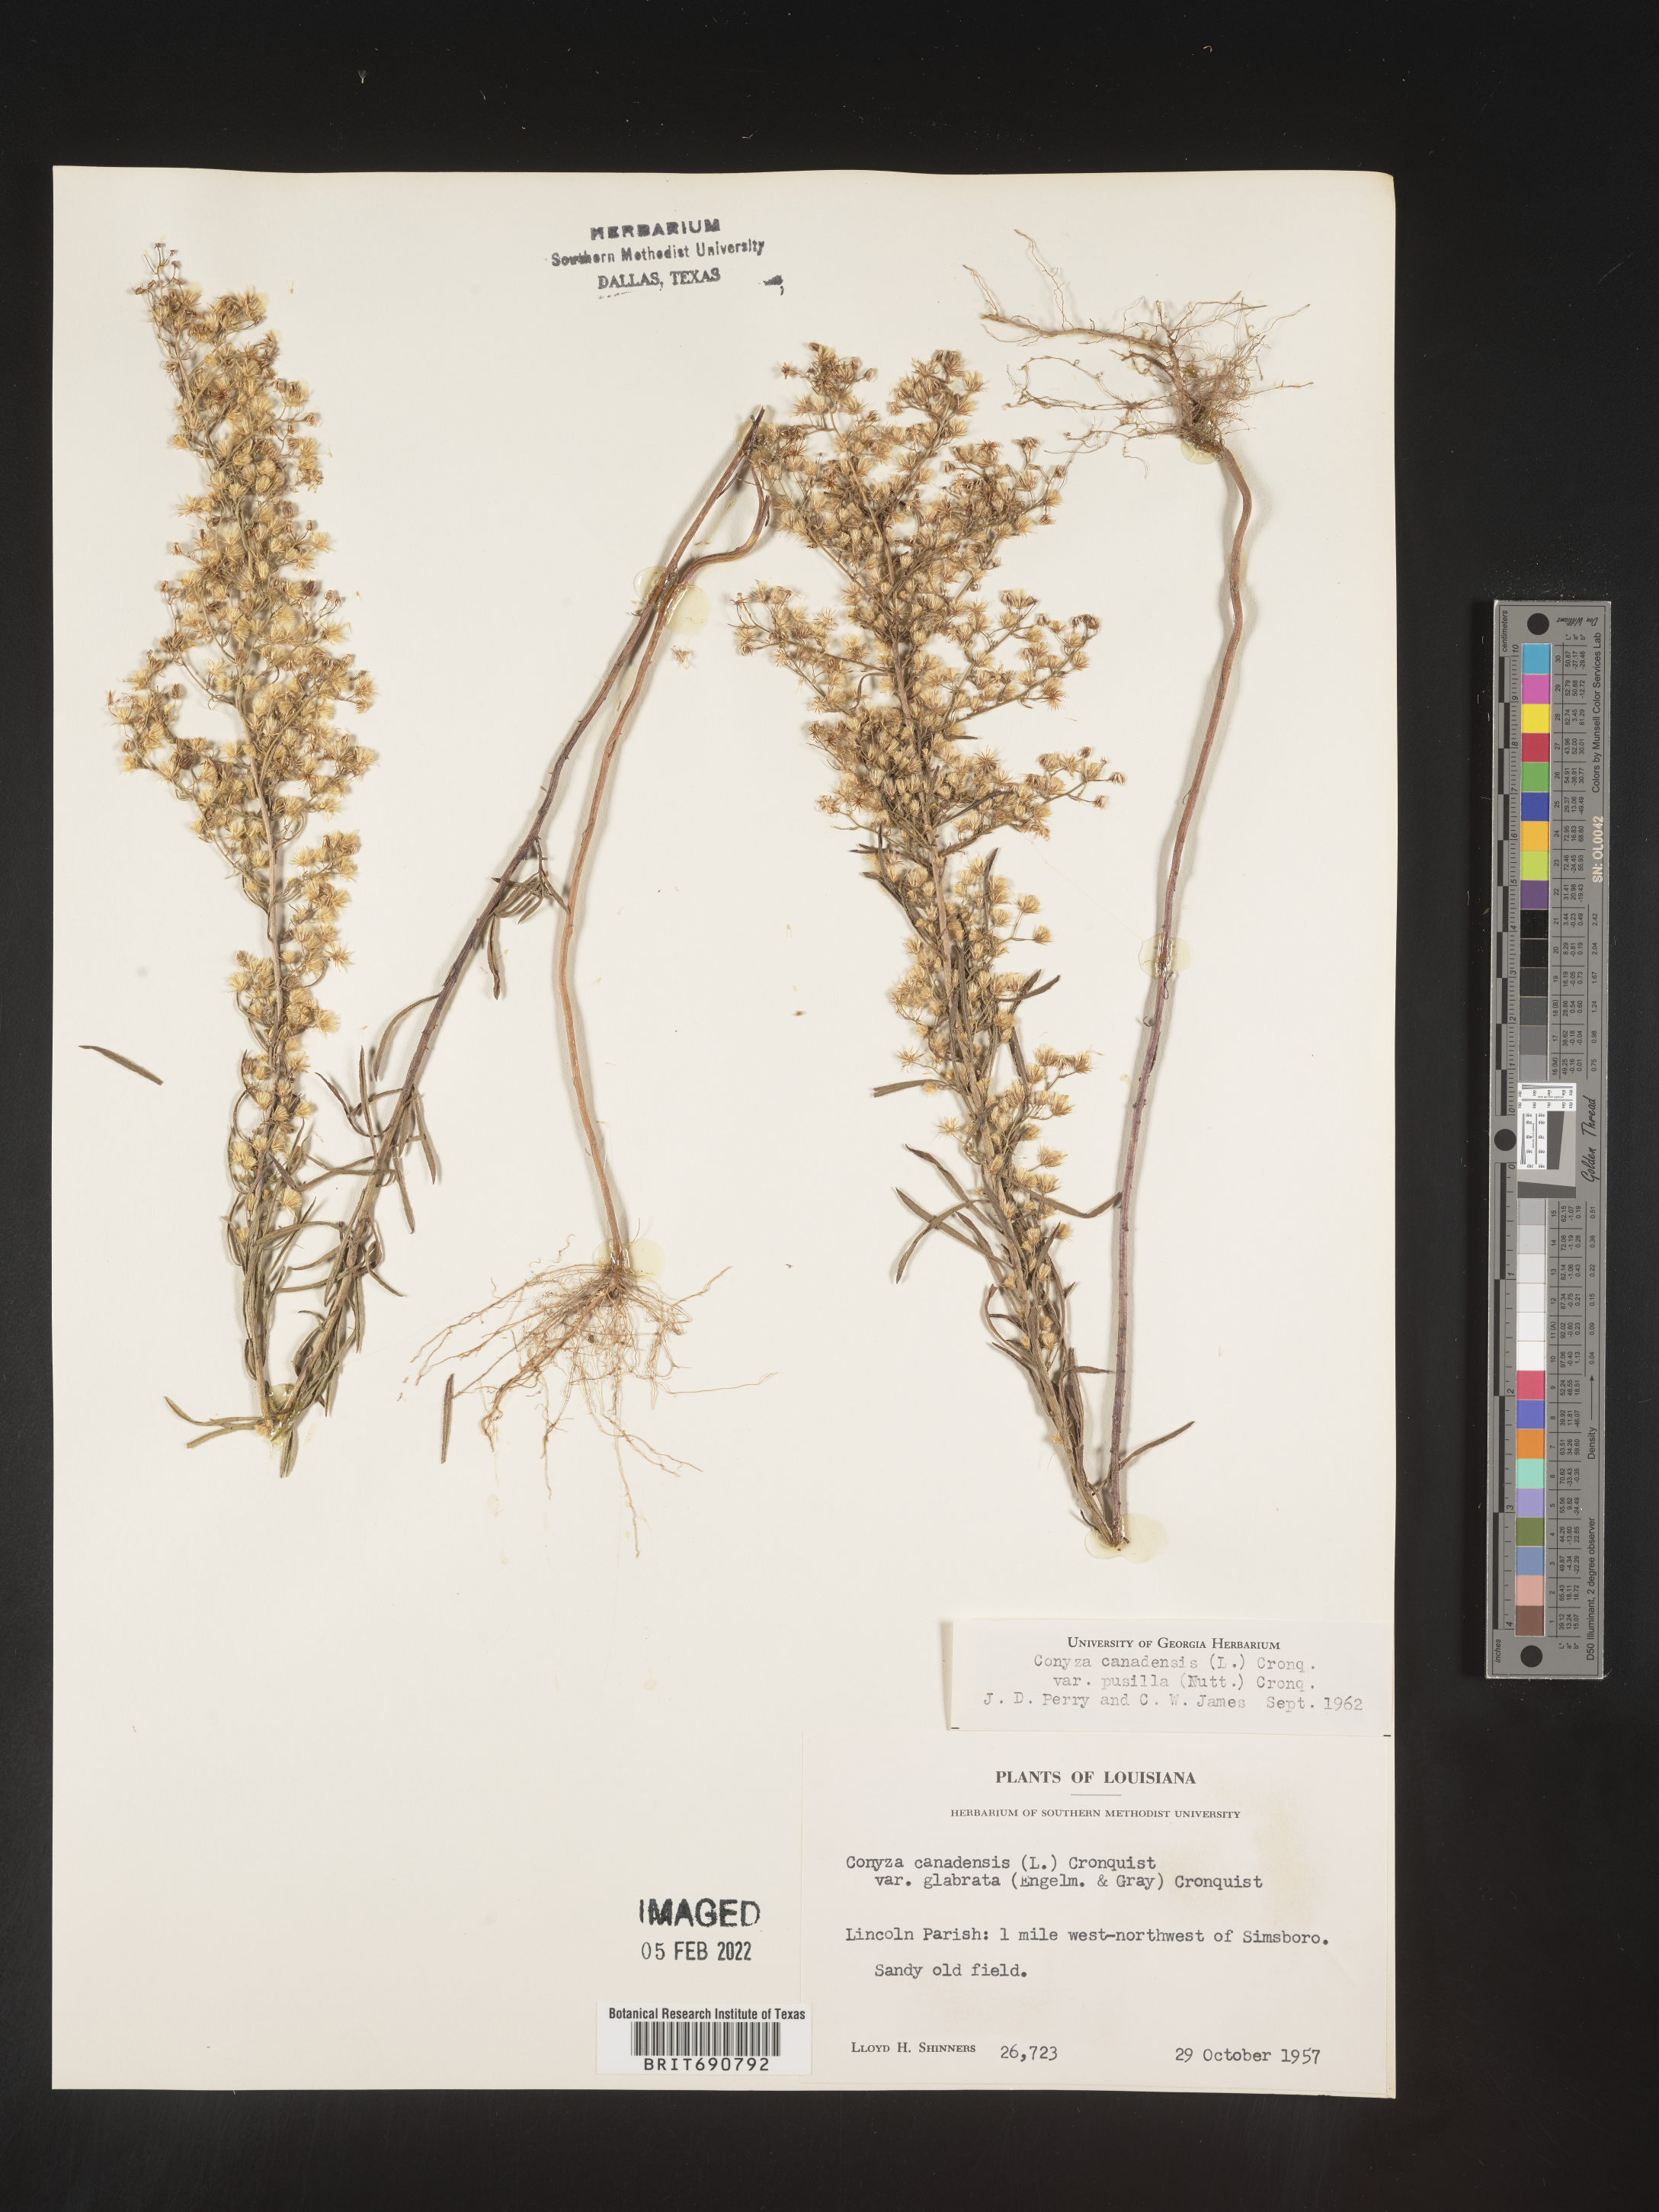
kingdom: Plantae
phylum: Tracheophyta
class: Magnoliopsida
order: Asterales
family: Asteraceae
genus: Erigeron
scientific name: Erigeron canadensis
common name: Canadian fleabane
